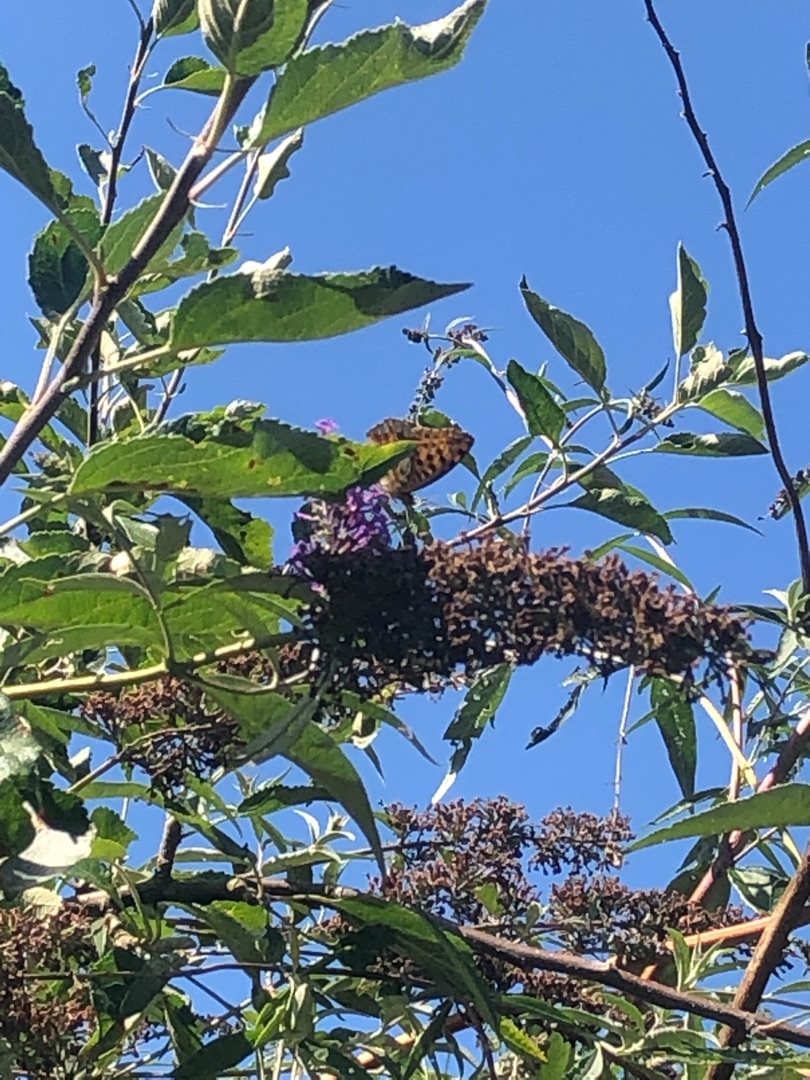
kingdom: Animalia
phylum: Arthropoda
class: Insecta
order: Lepidoptera
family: Nymphalidae
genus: Issoria
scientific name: Issoria lathonia
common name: Storplettet perlemorsommerfugl
